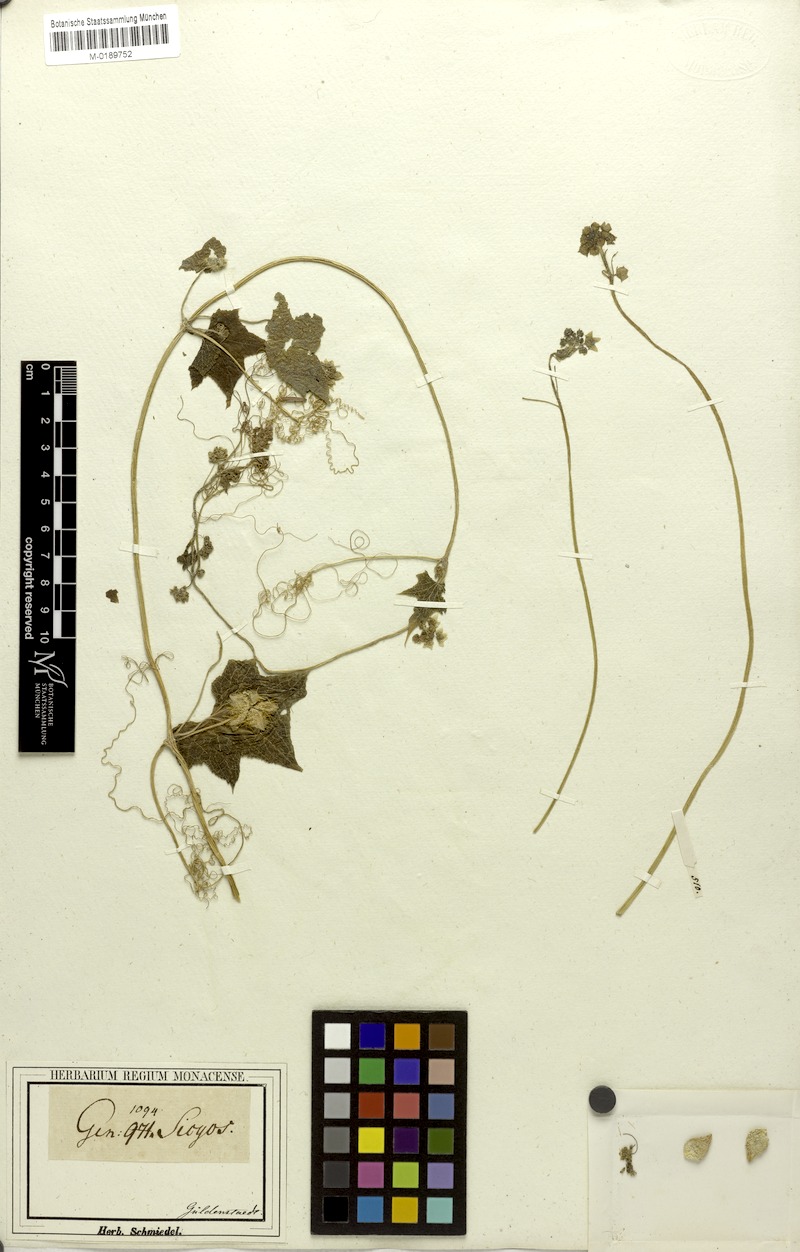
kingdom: Plantae
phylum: Tracheophyta
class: Magnoliopsida
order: Cucurbitales
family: Cucurbitaceae
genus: Sicyos
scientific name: Sicyos angulatus
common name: Angled burr cucumber
